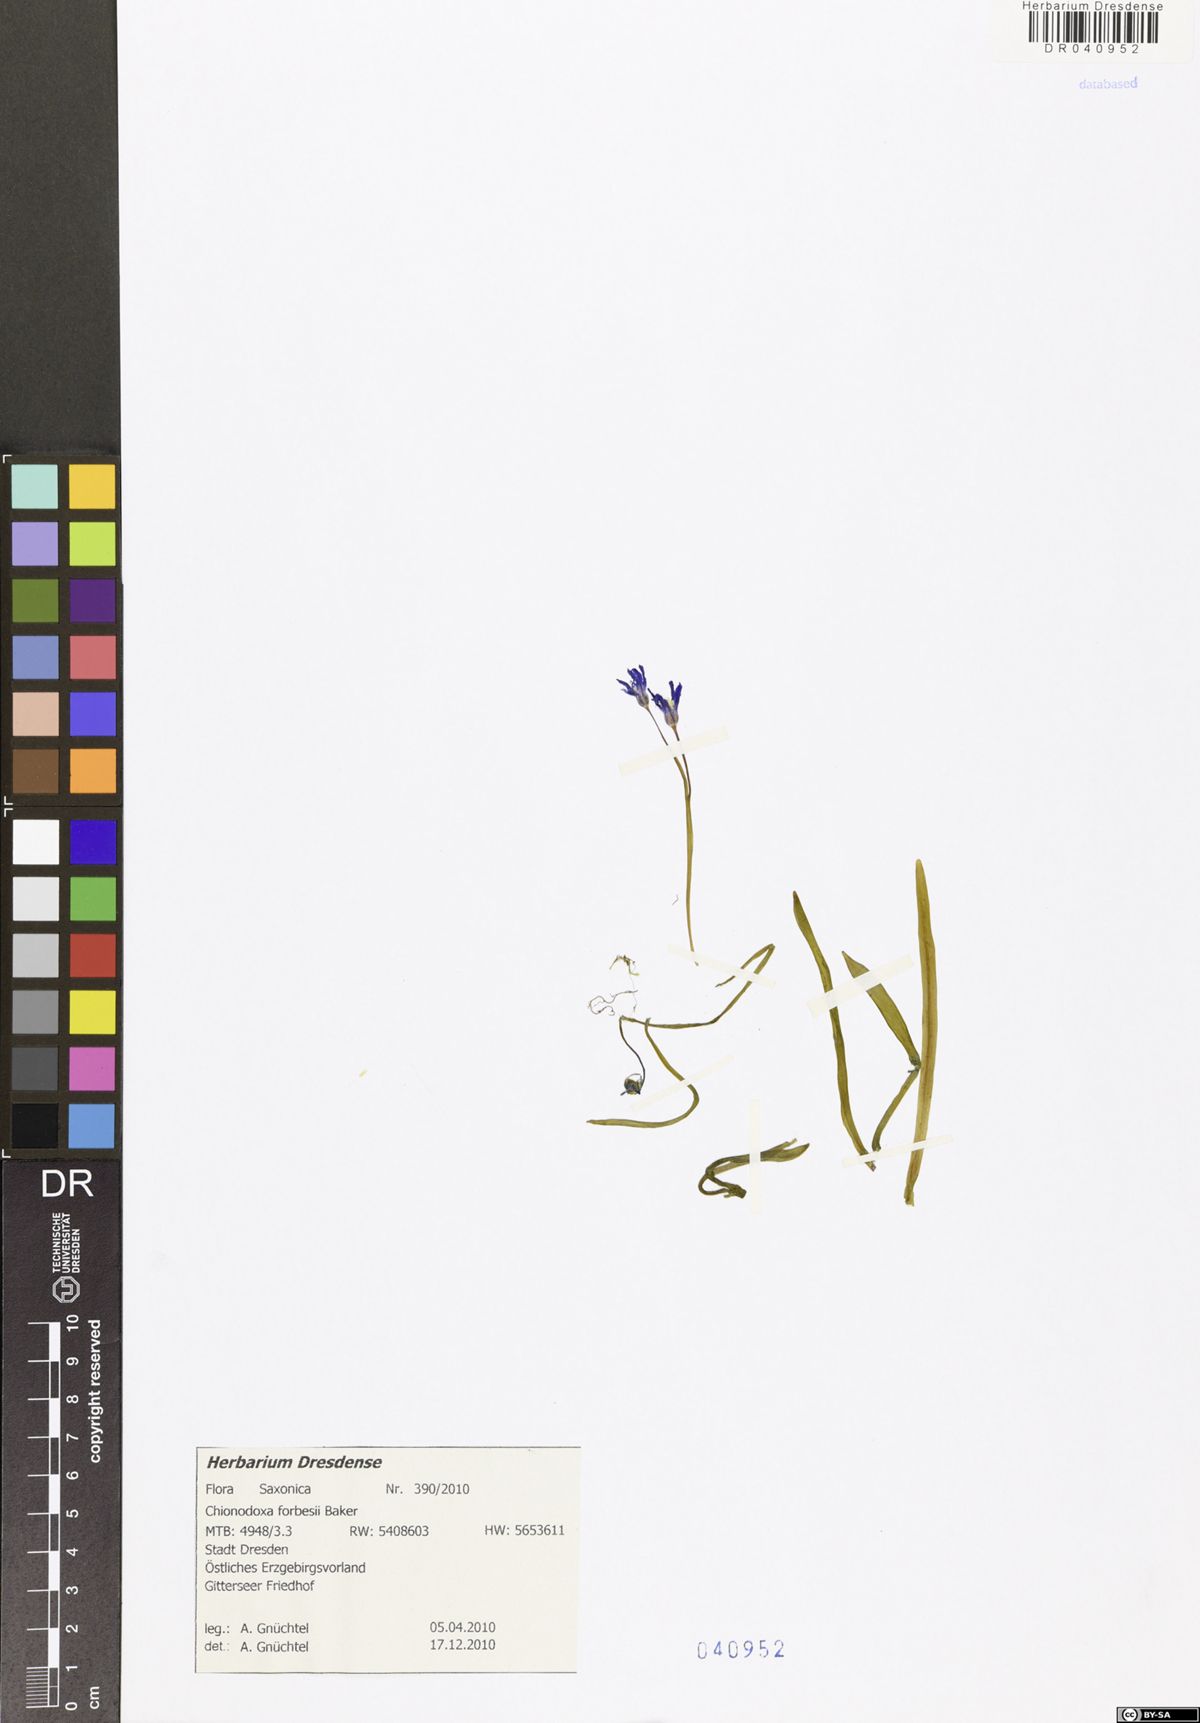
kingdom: Plantae
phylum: Tracheophyta
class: Liliopsida
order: Asparagales
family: Asparagaceae
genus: Scilla
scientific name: Scilla forbesii
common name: Glory-of-the-snow
